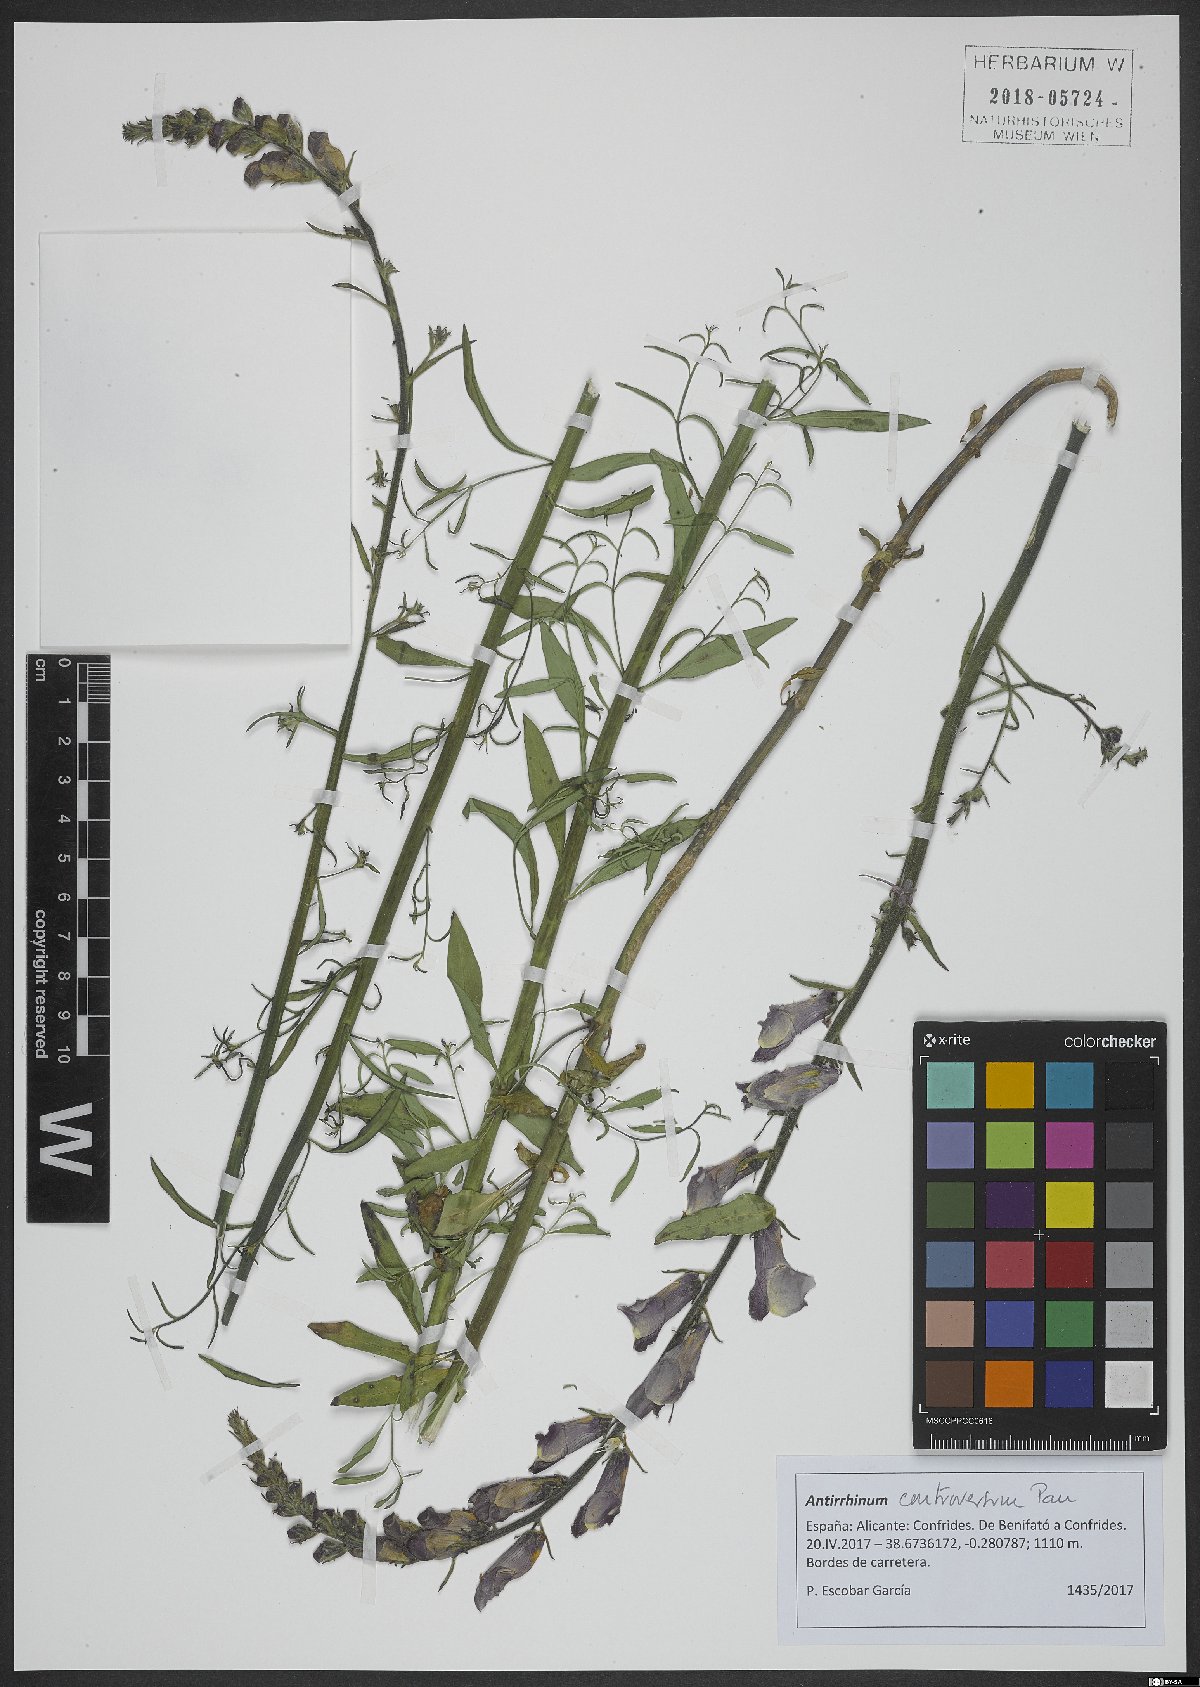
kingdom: Plantae
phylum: Tracheophyta
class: Magnoliopsida
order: Lamiales
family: Plantaginaceae
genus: Antirrhinum
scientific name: Antirrhinum controversum
